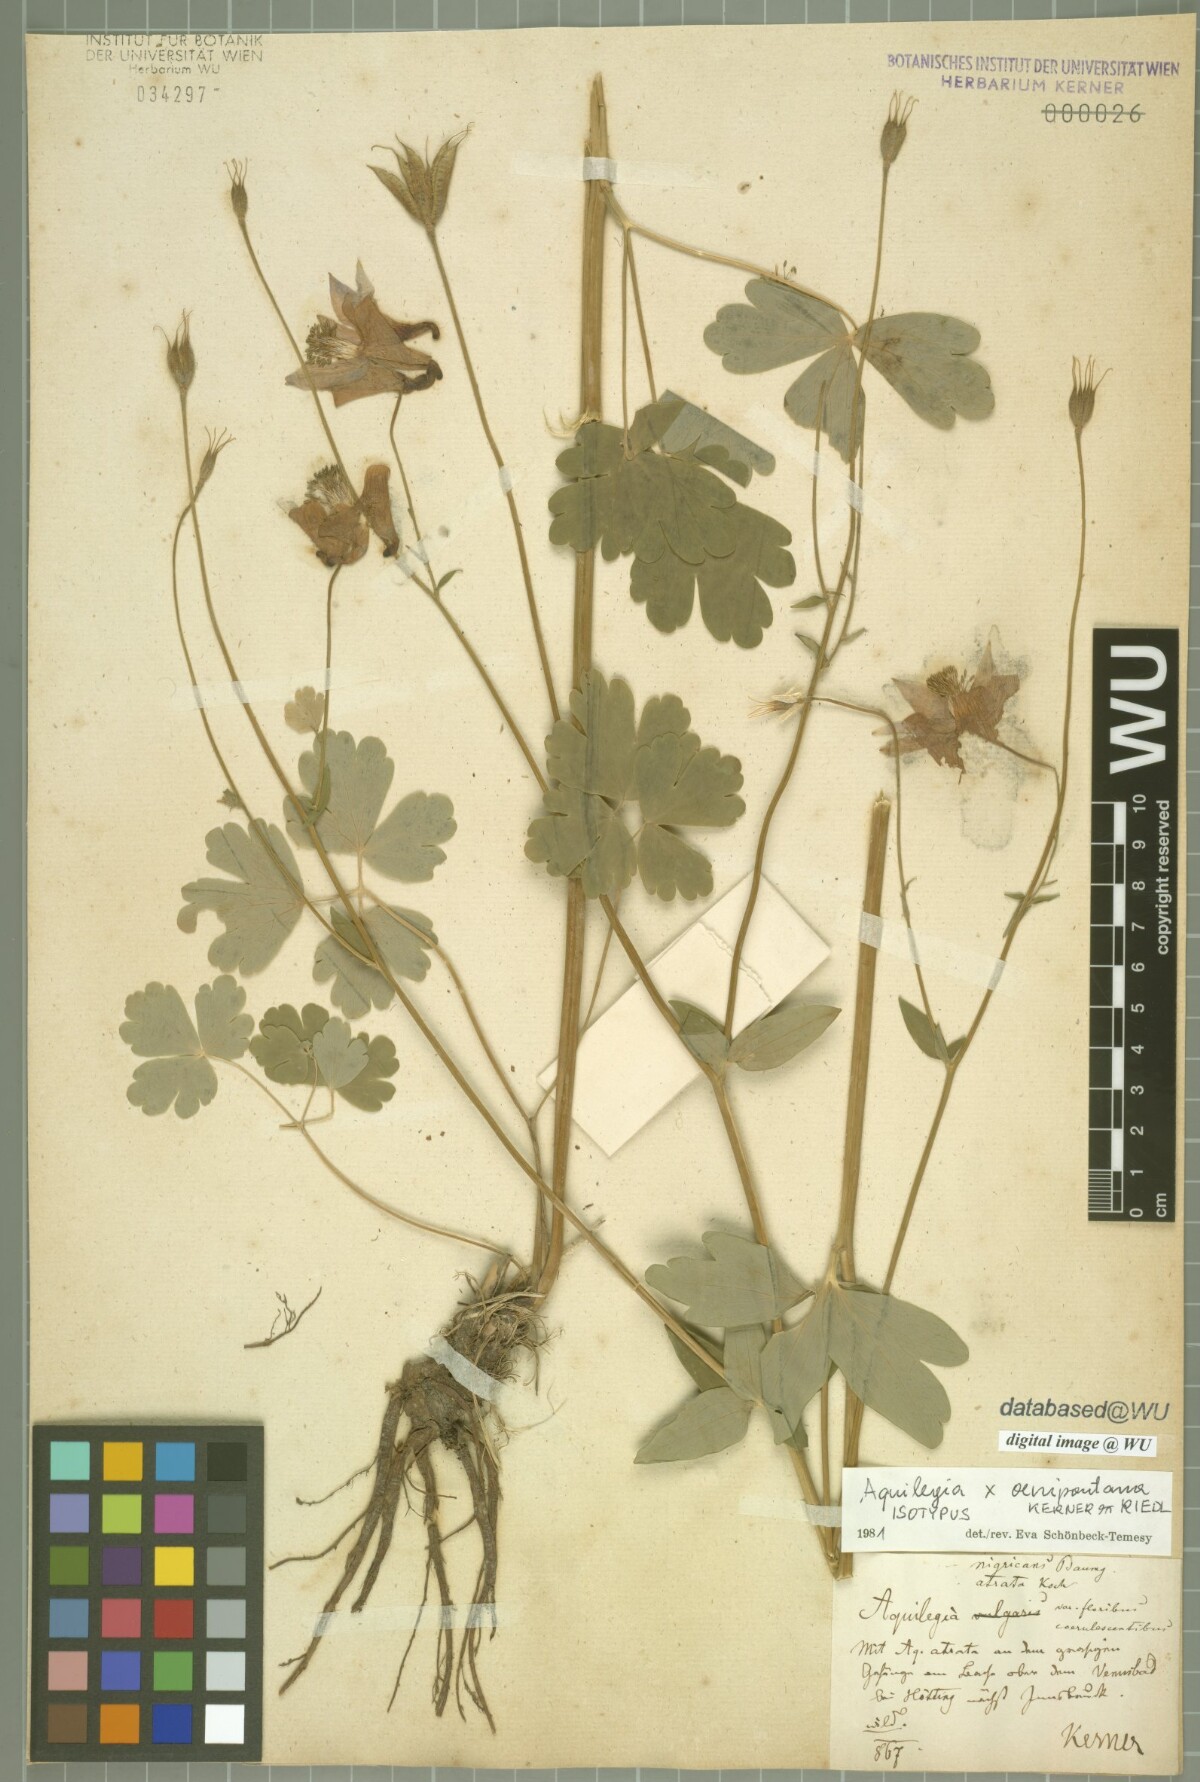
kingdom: Plantae
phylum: Tracheophyta
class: Magnoliopsida
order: Ranunculales
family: Ranunculaceae
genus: Aquilegia
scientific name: Aquilegia oenipontana
